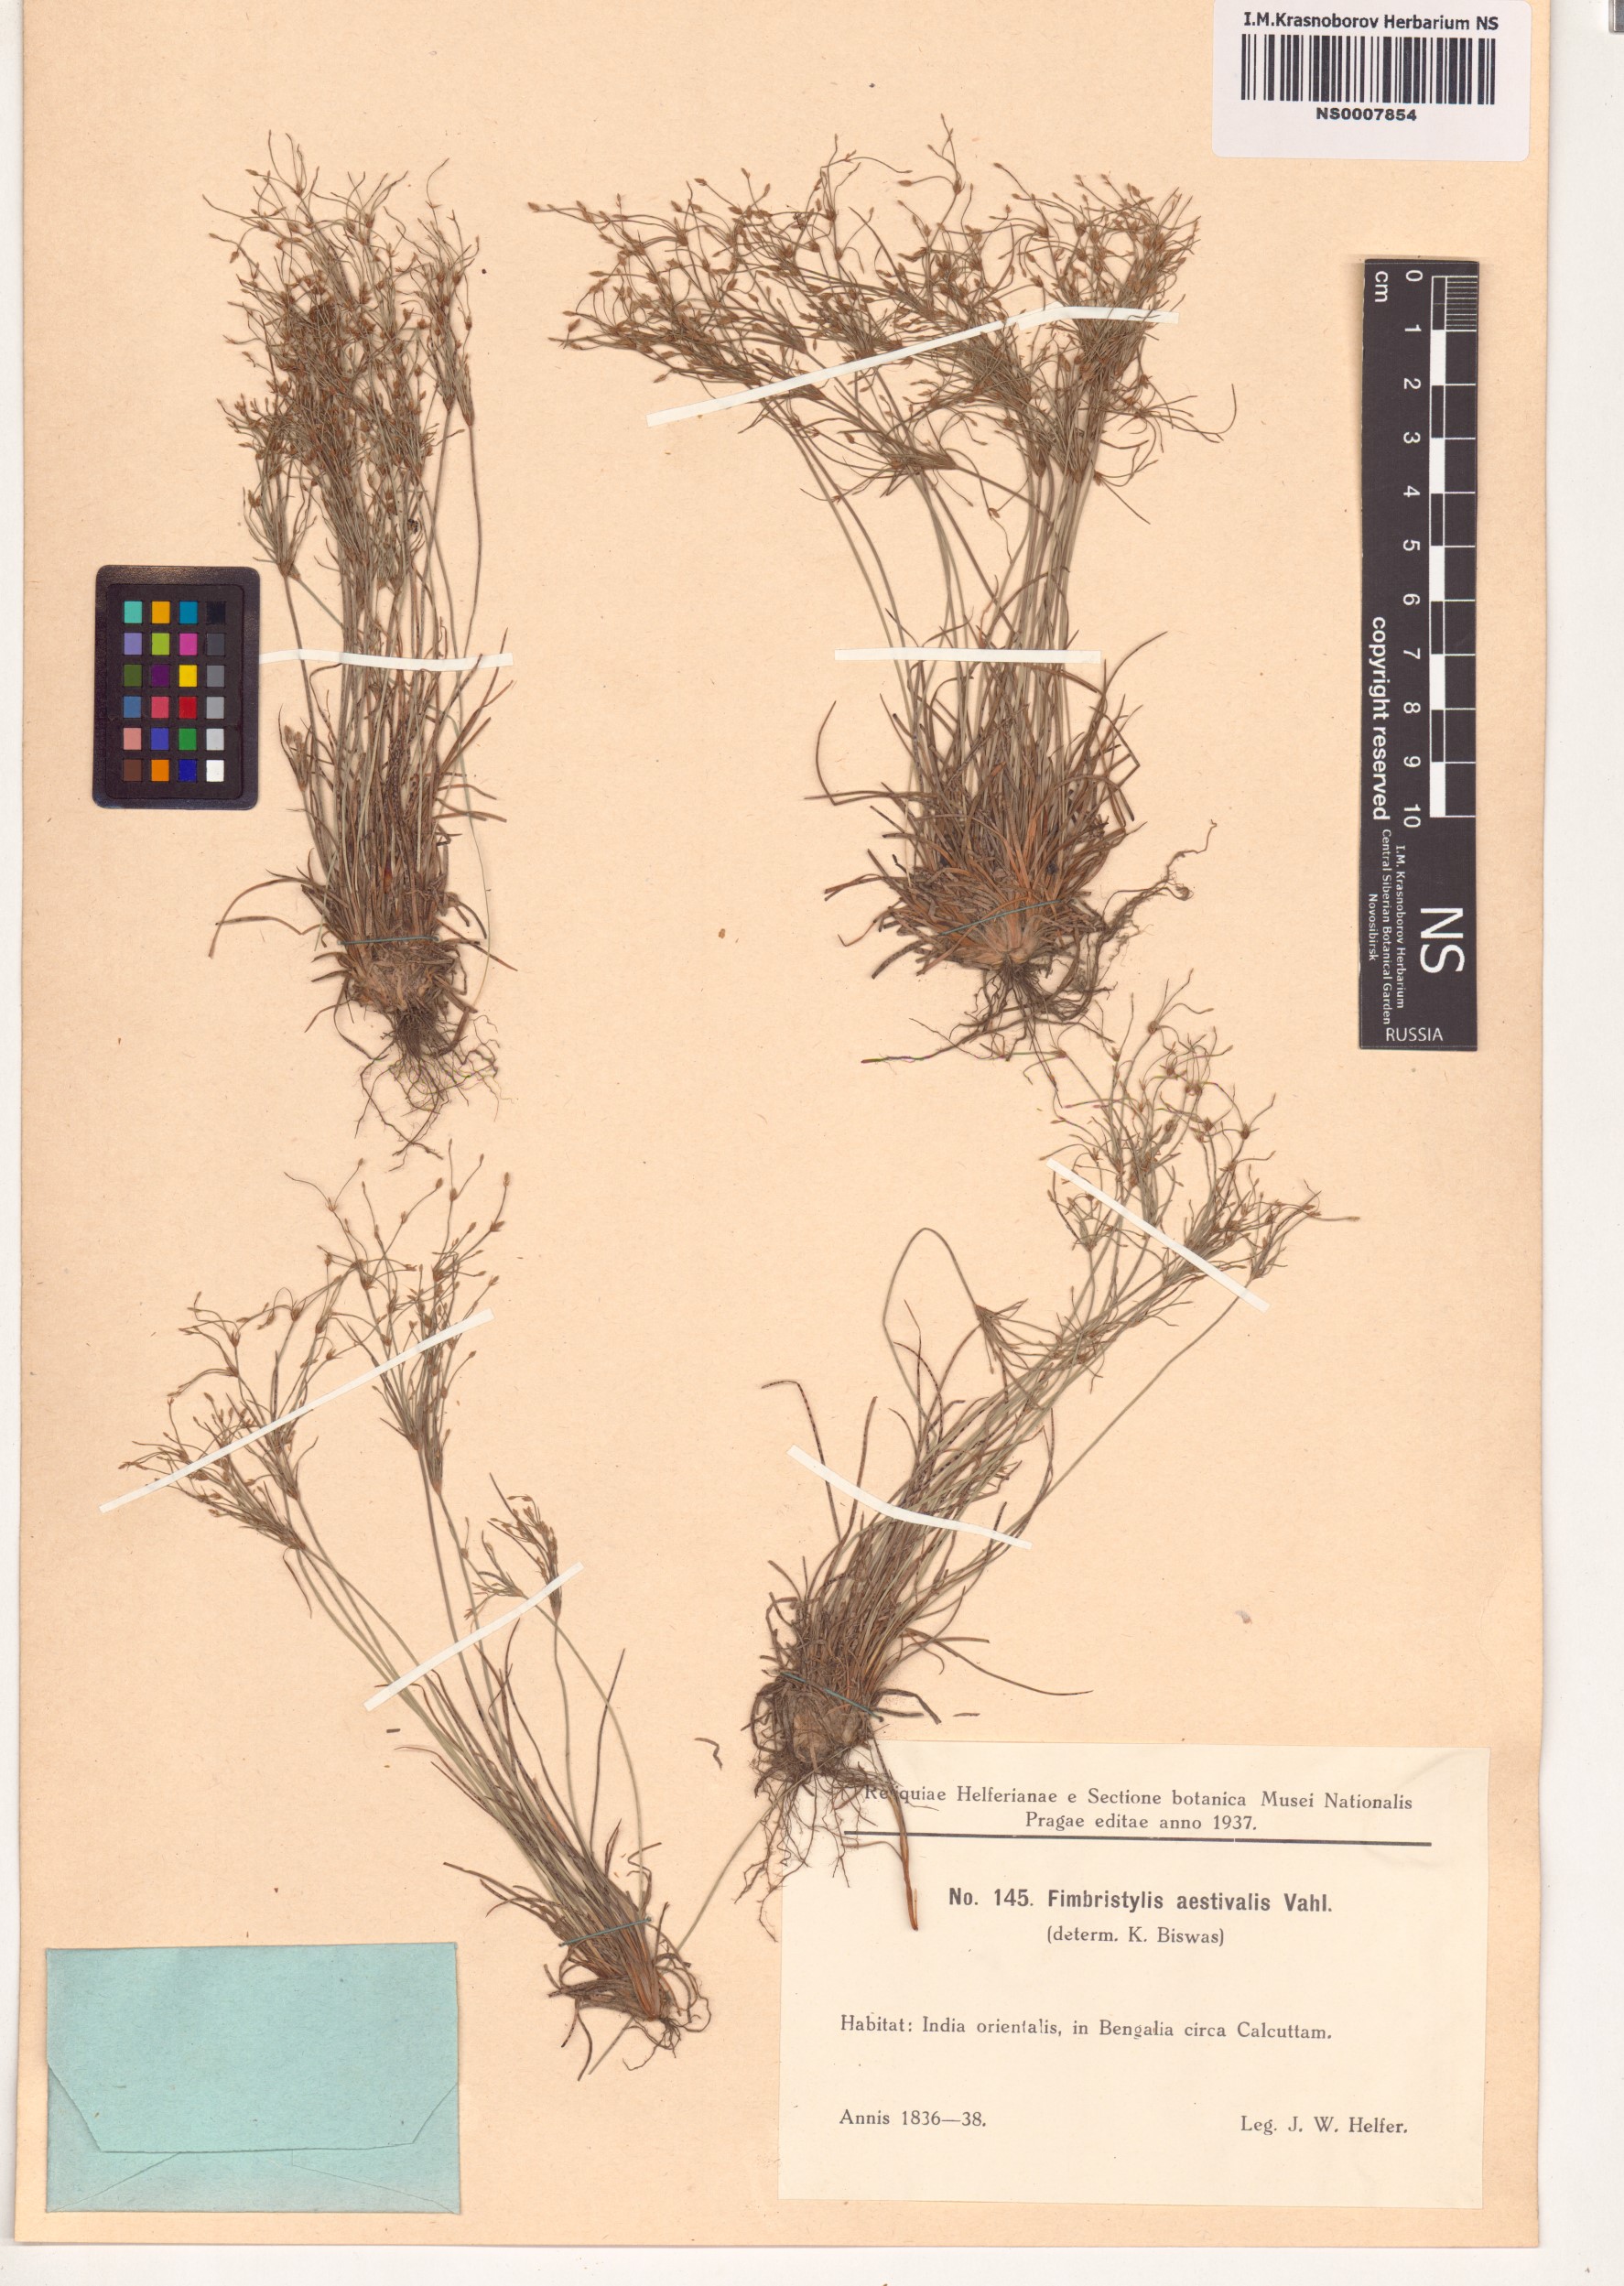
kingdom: Plantae
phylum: Tracheophyta
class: Liliopsida
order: Poales
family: Cyperaceae
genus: Fimbristylis
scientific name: Fimbristylis aestivalis
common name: Summer fimbry
